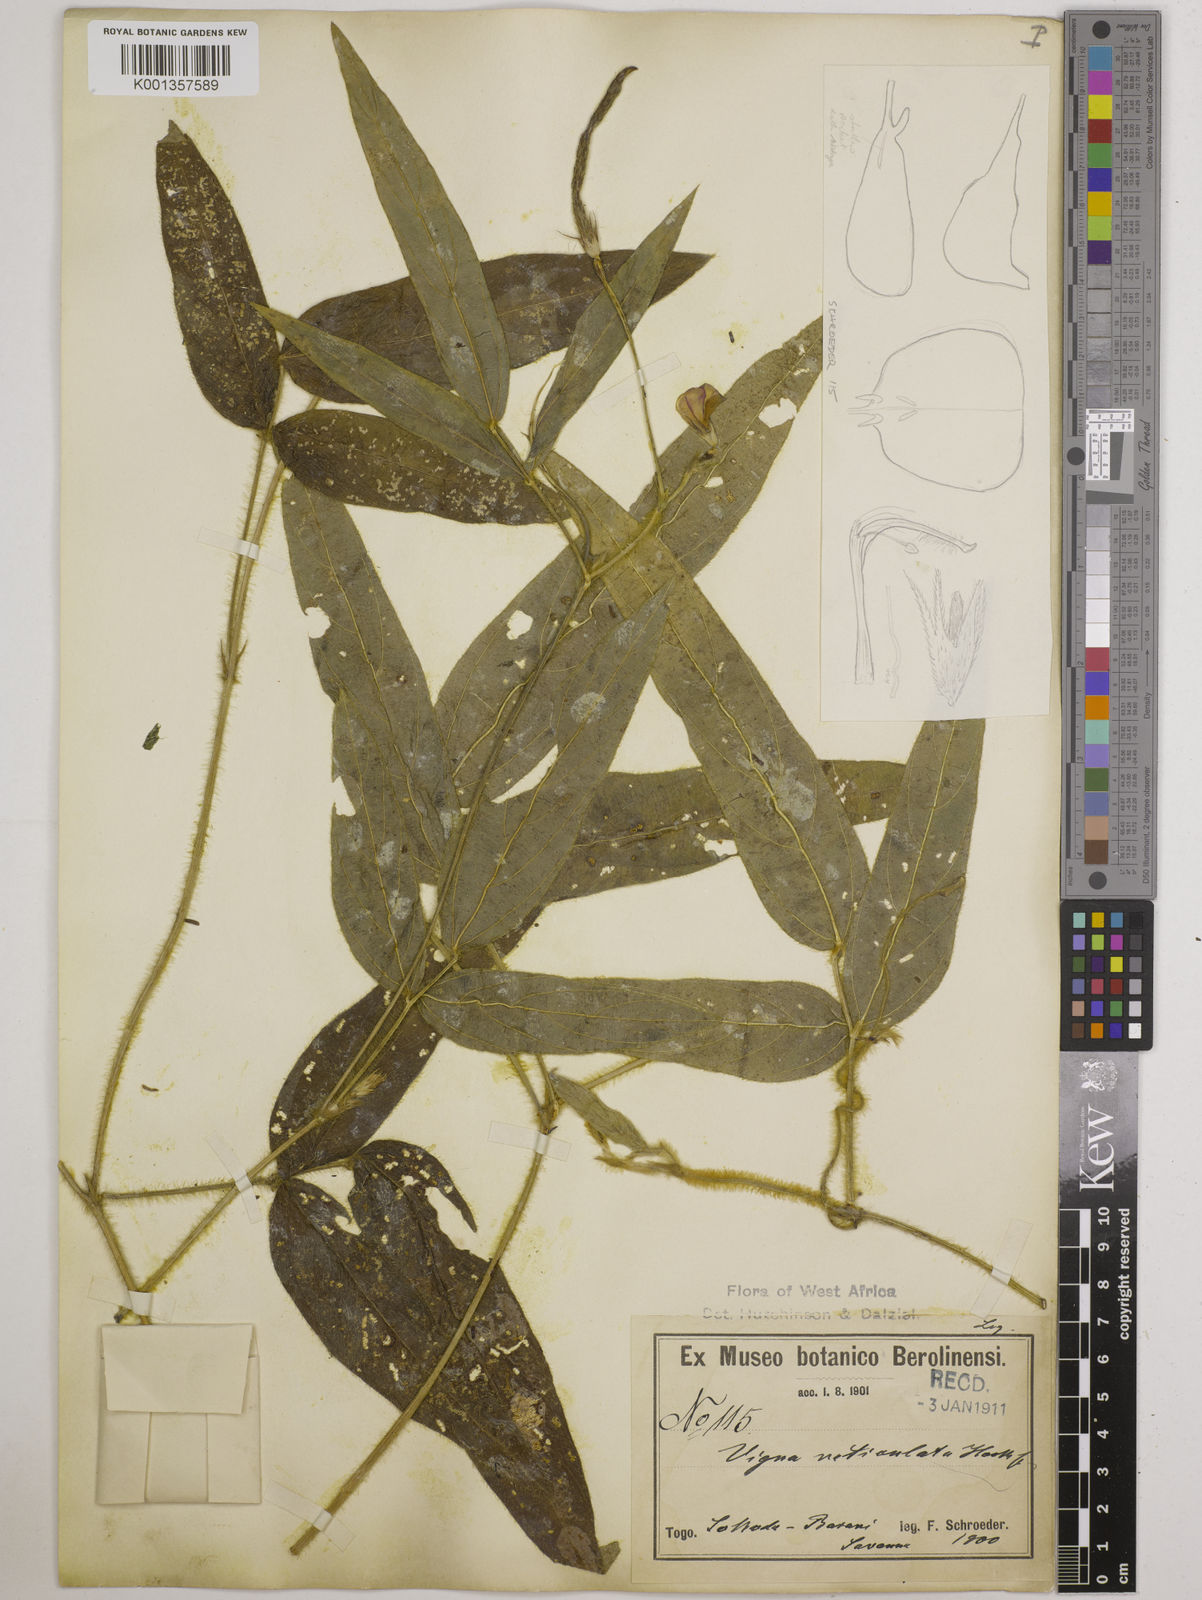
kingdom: Plantae
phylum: Tracheophyta
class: Magnoliopsida
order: Fabales
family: Fabaceae
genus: Vigna
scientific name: Vigna reticulata
